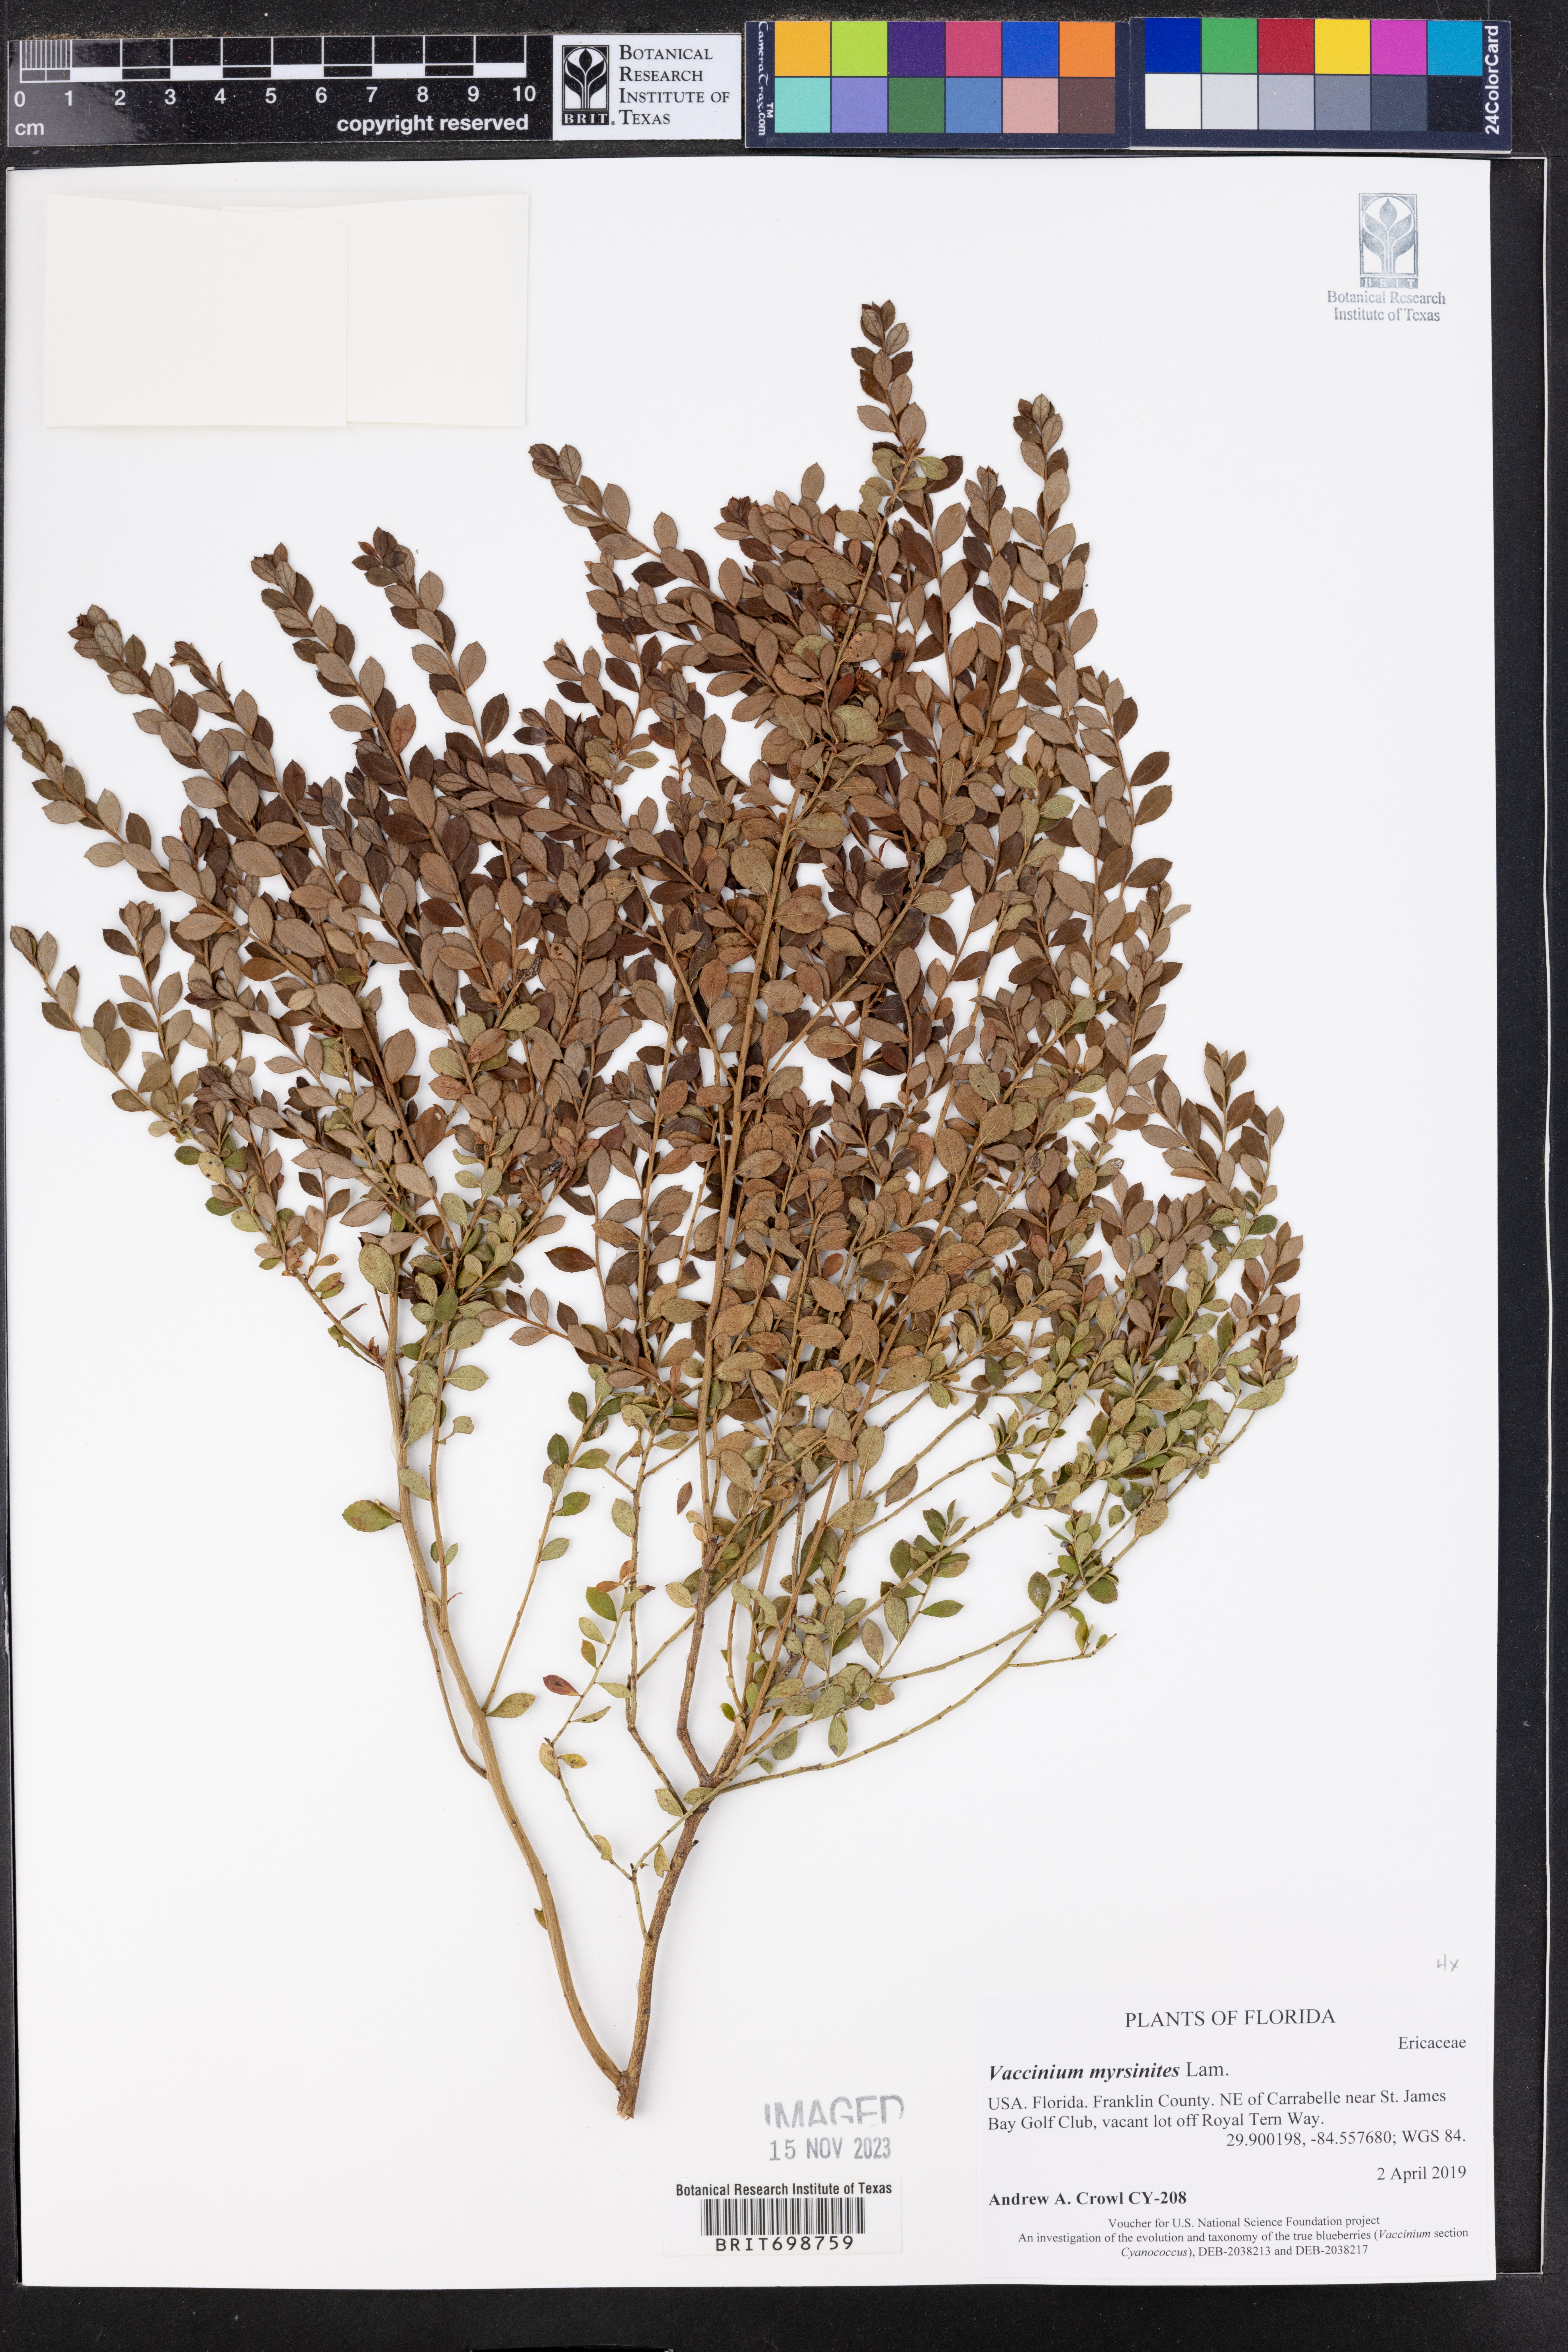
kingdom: Plantae
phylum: Tracheophyta
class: Magnoliopsida
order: Ericales
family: Ericaceae
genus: Vaccinium
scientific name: Vaccinium myrsinites
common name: Evergreen blueberry
